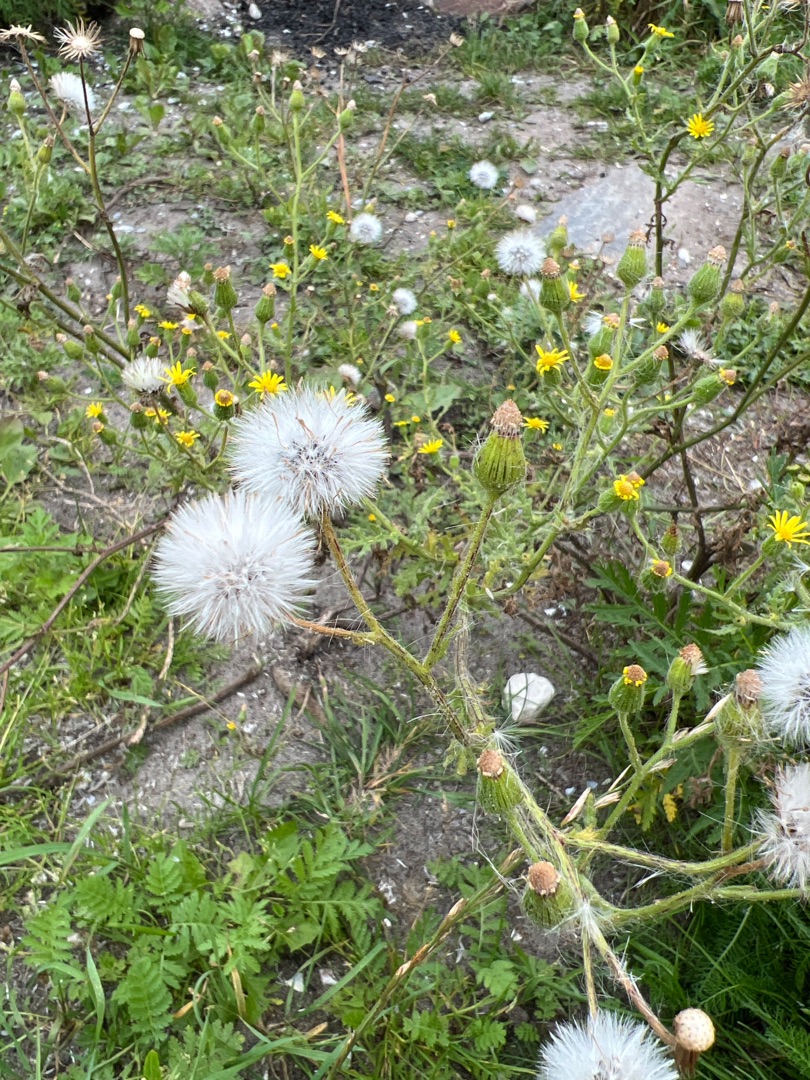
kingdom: Plantae
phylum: Tracheophyta
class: Magnoliopsida
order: Asterales
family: Asteraceae
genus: Senecio
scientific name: Senecio viscosus
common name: Klæbrig brandbæger
